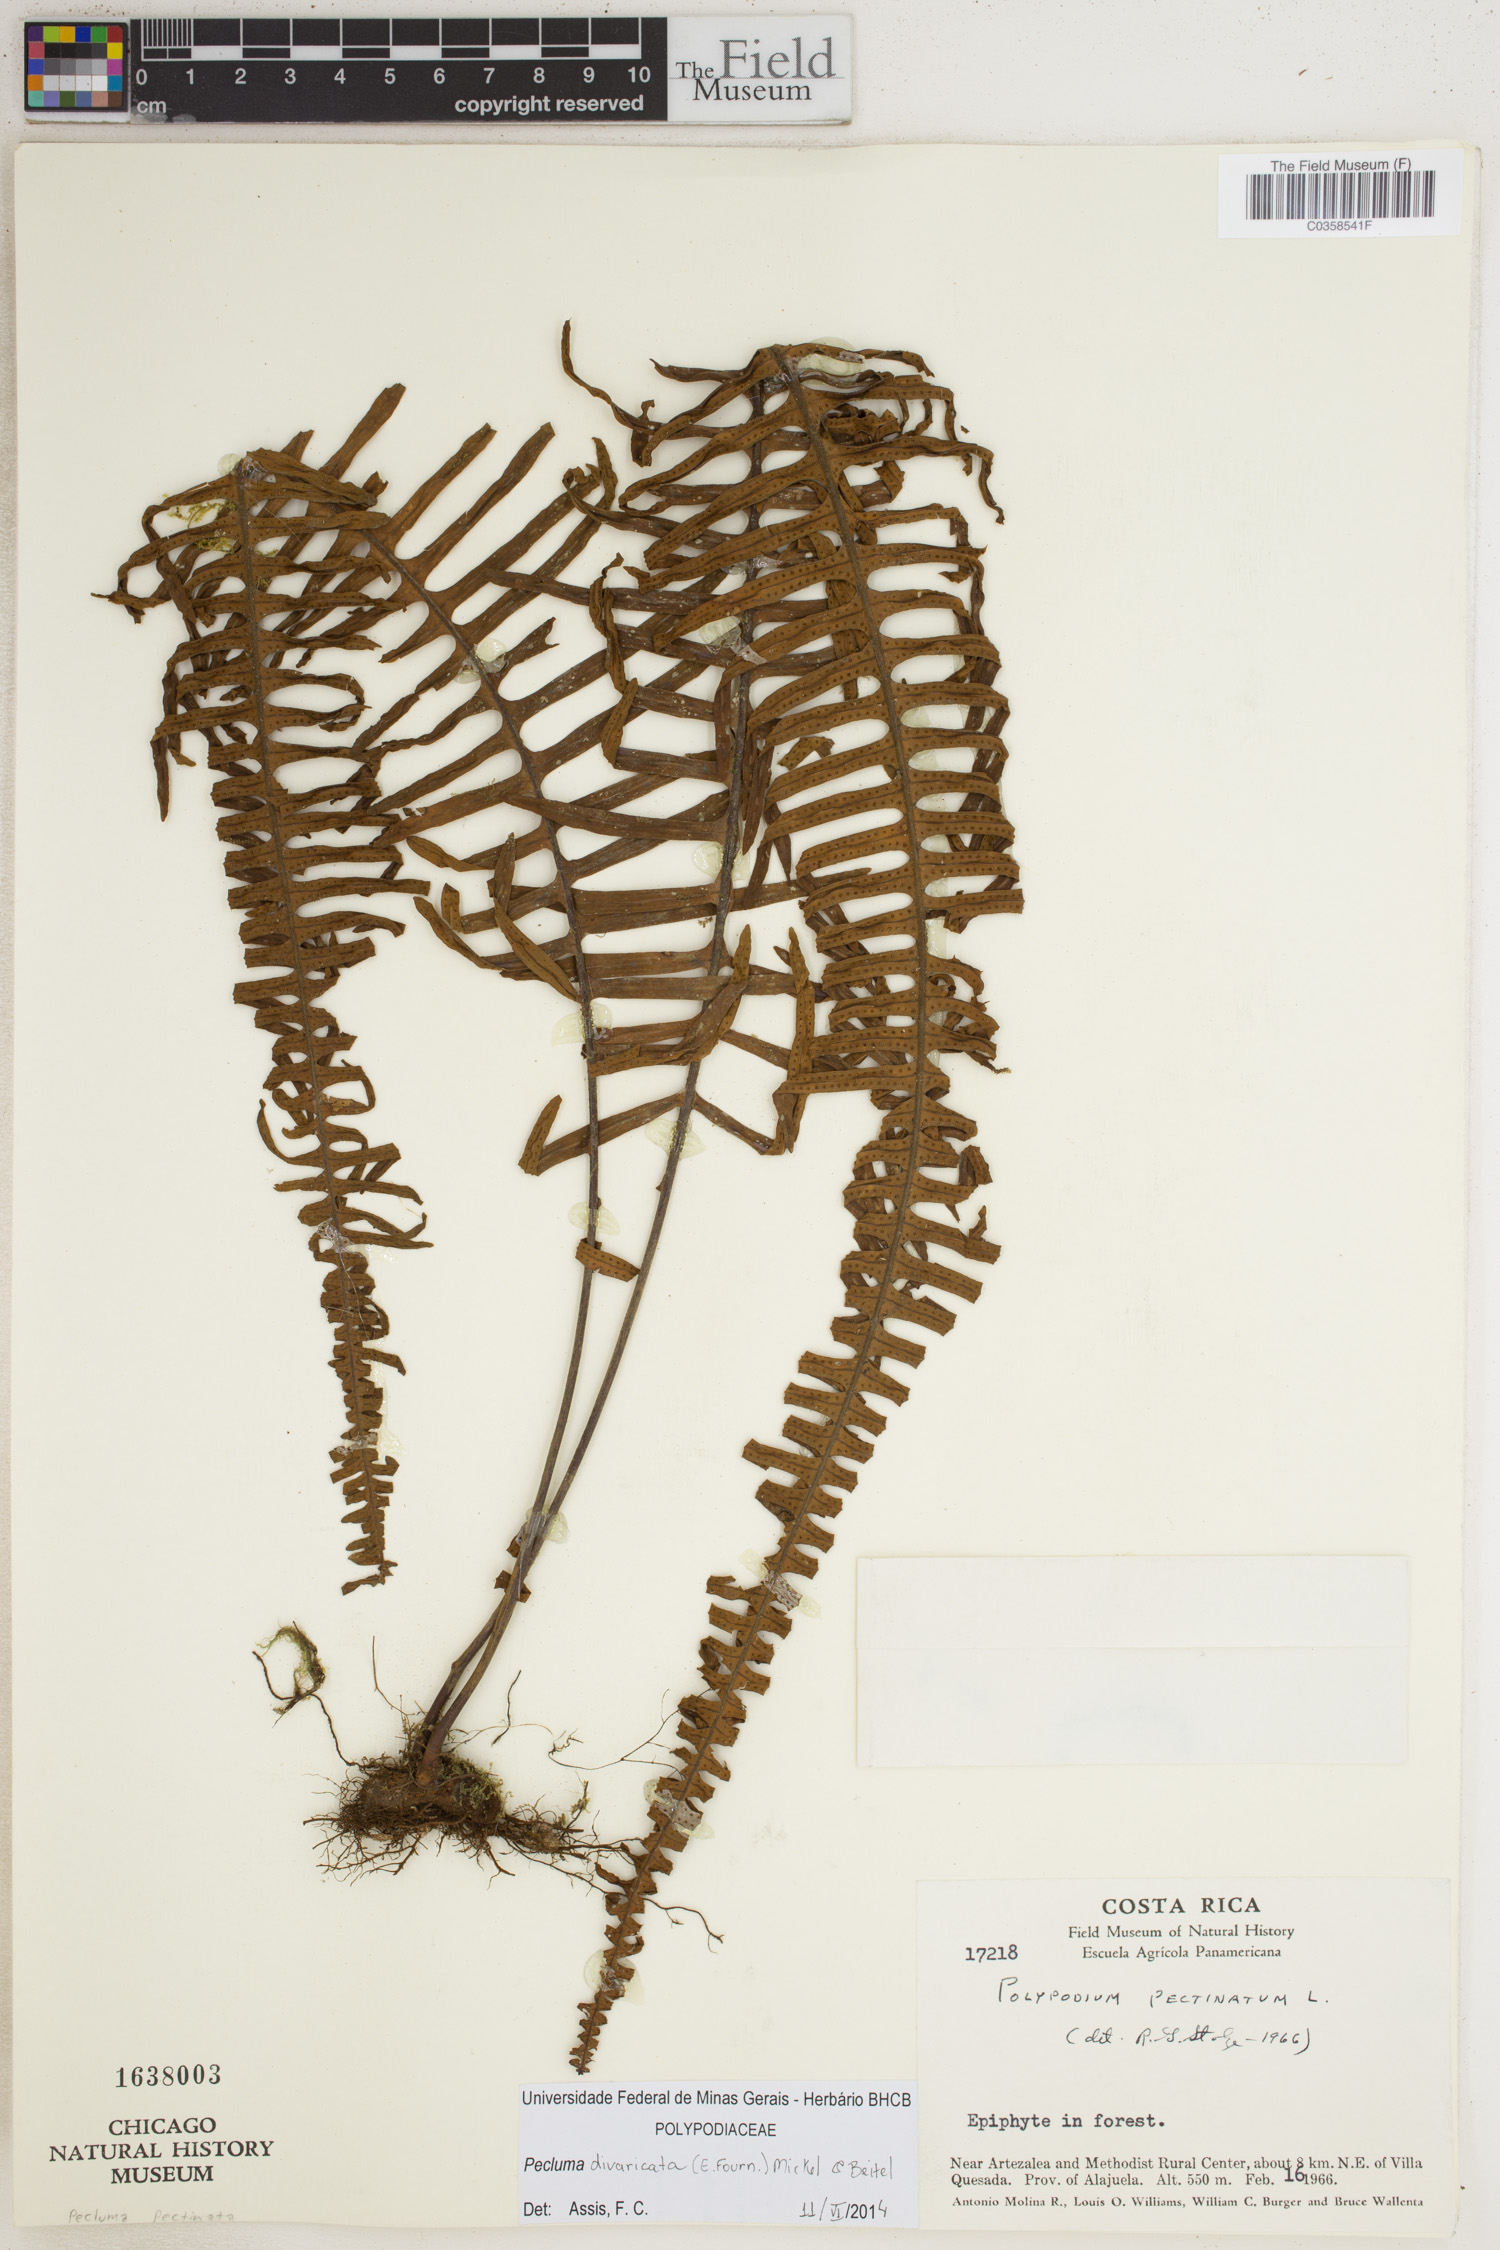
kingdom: Plantae
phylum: Tracheophyta
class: Polypodiopsida
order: Polypodiales
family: Polypodiaceae
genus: Pecluma
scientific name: Pecluma divaricata
